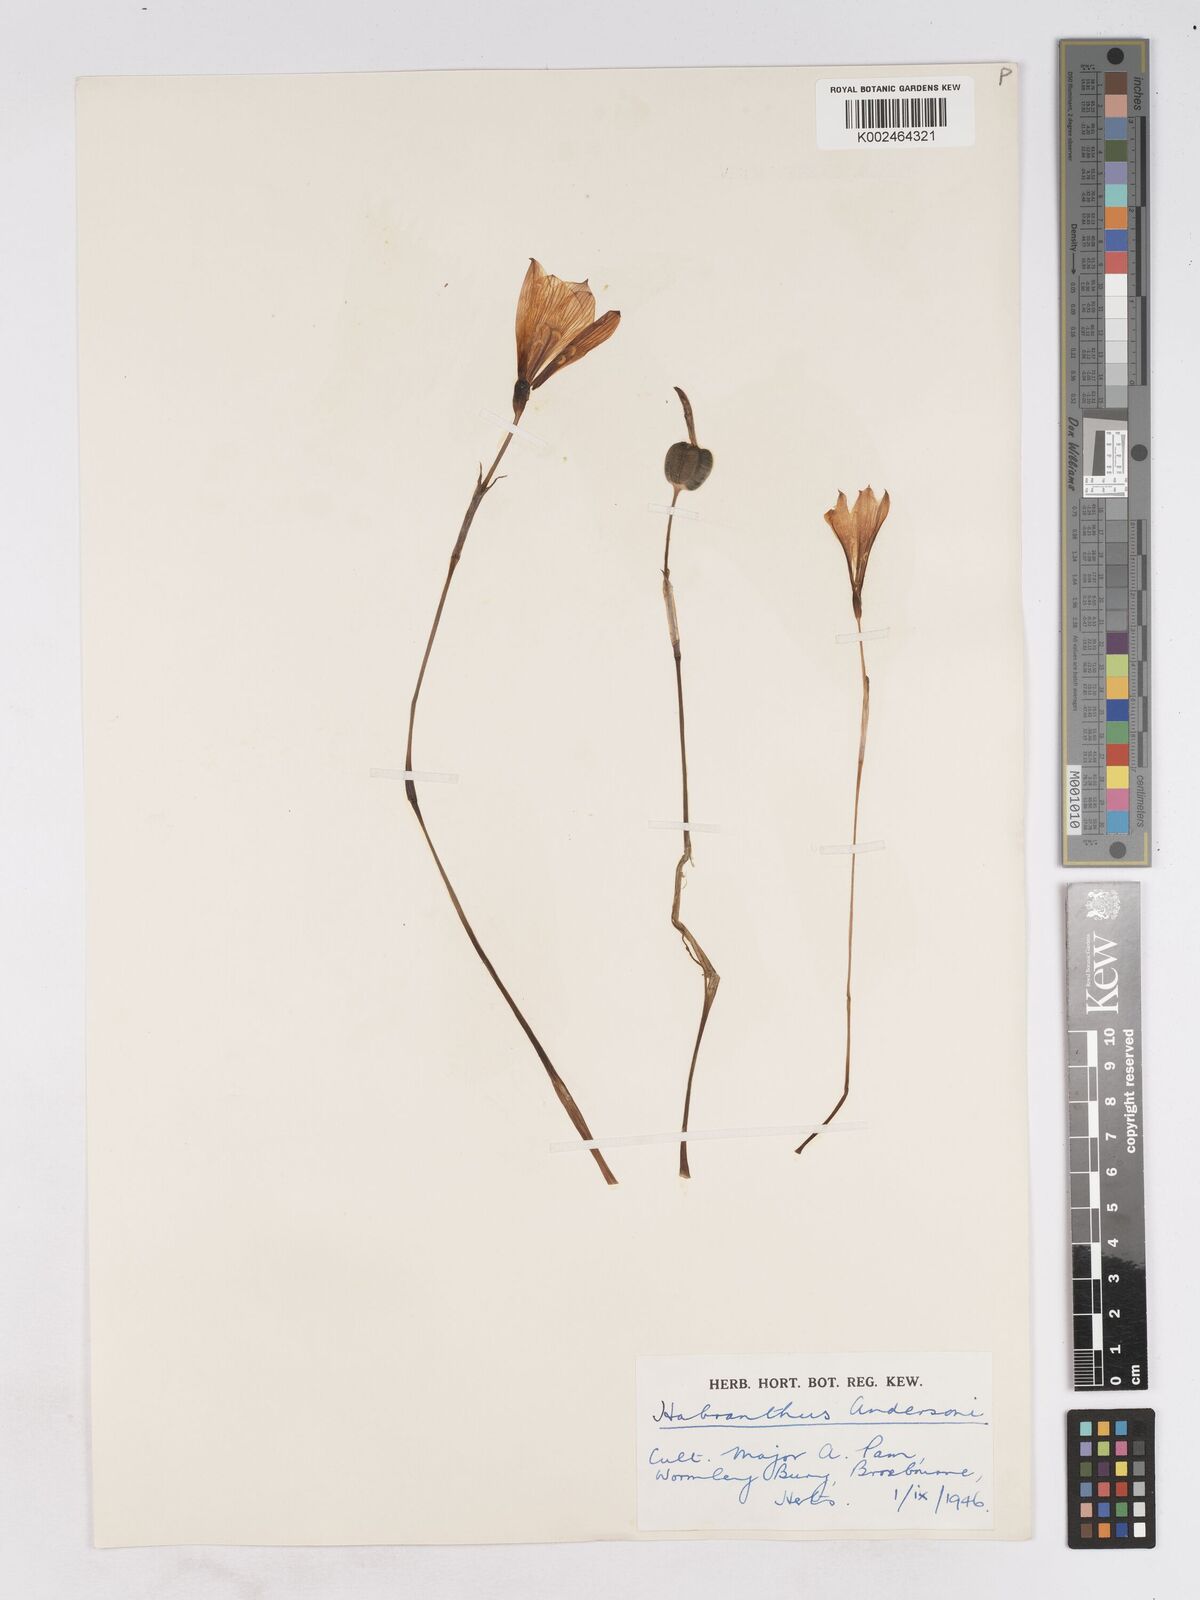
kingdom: Plantae
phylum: Tracheophyta
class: Liliopsida
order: Asparagales
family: Amaryllidaceae
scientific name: Amaryllidaceae
